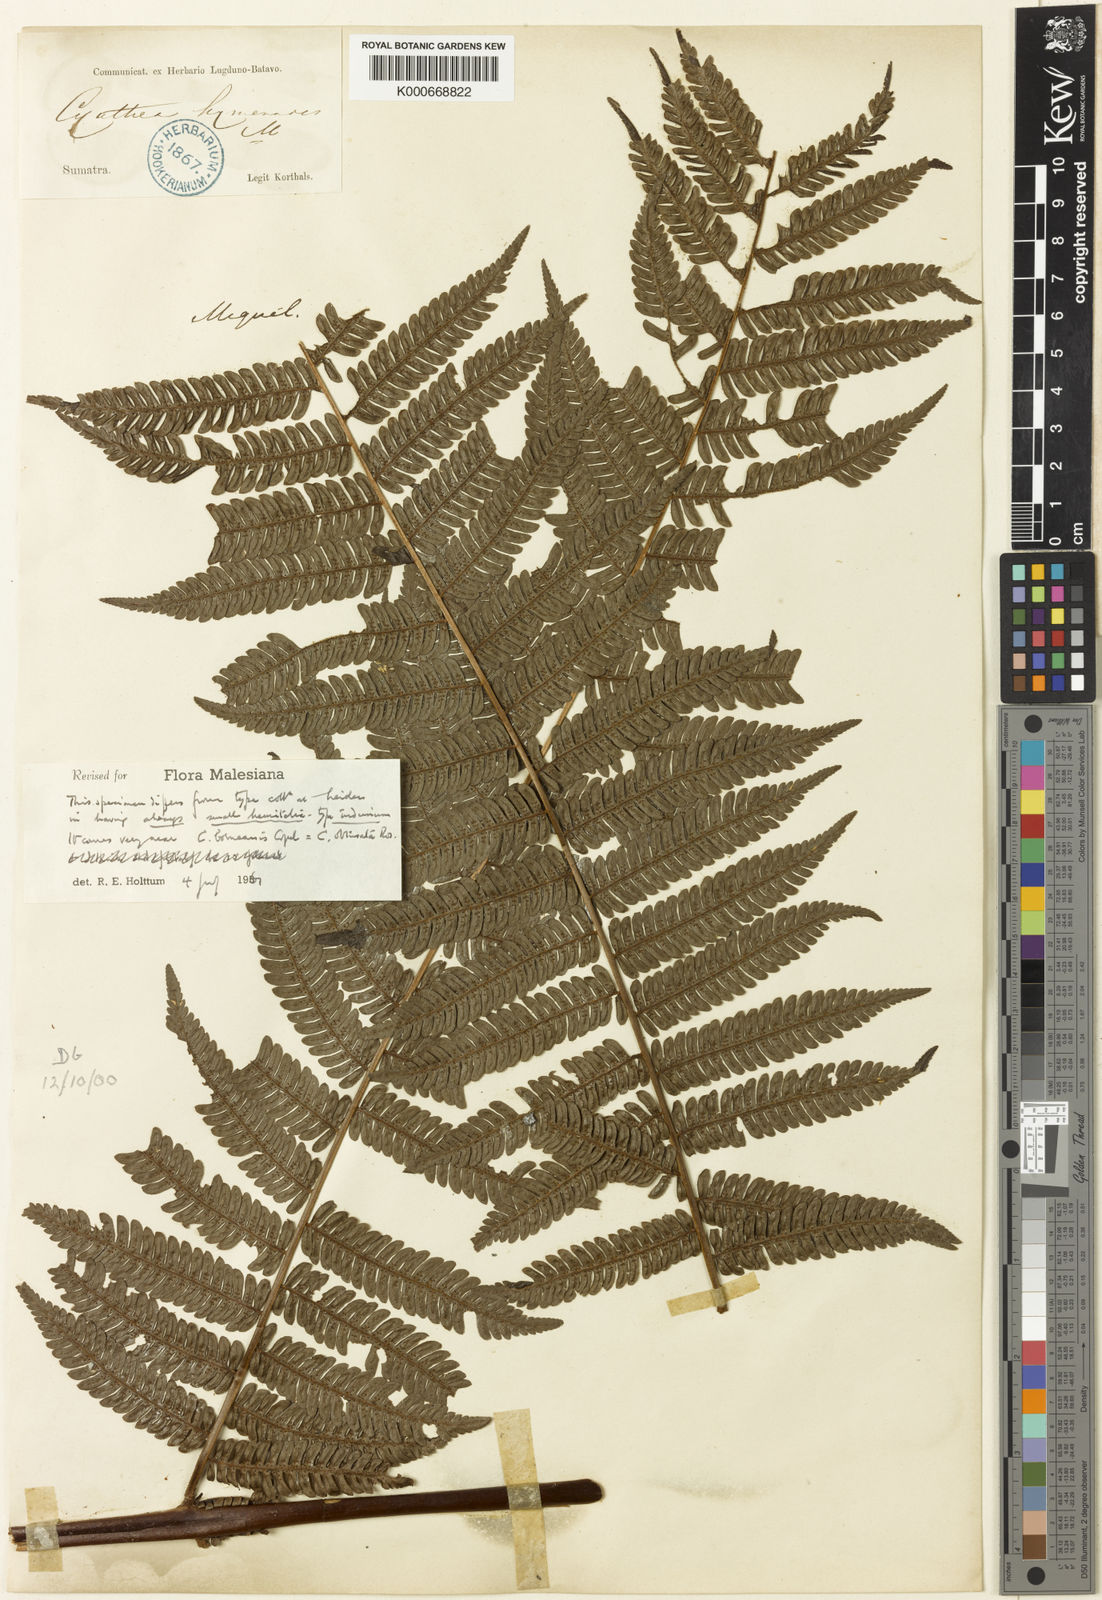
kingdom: Plantae
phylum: Tracheophyta
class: Polypodiopsida
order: Cyatheales
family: Cyatheaceae
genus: Alsophila
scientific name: Alsophila hymenodes
